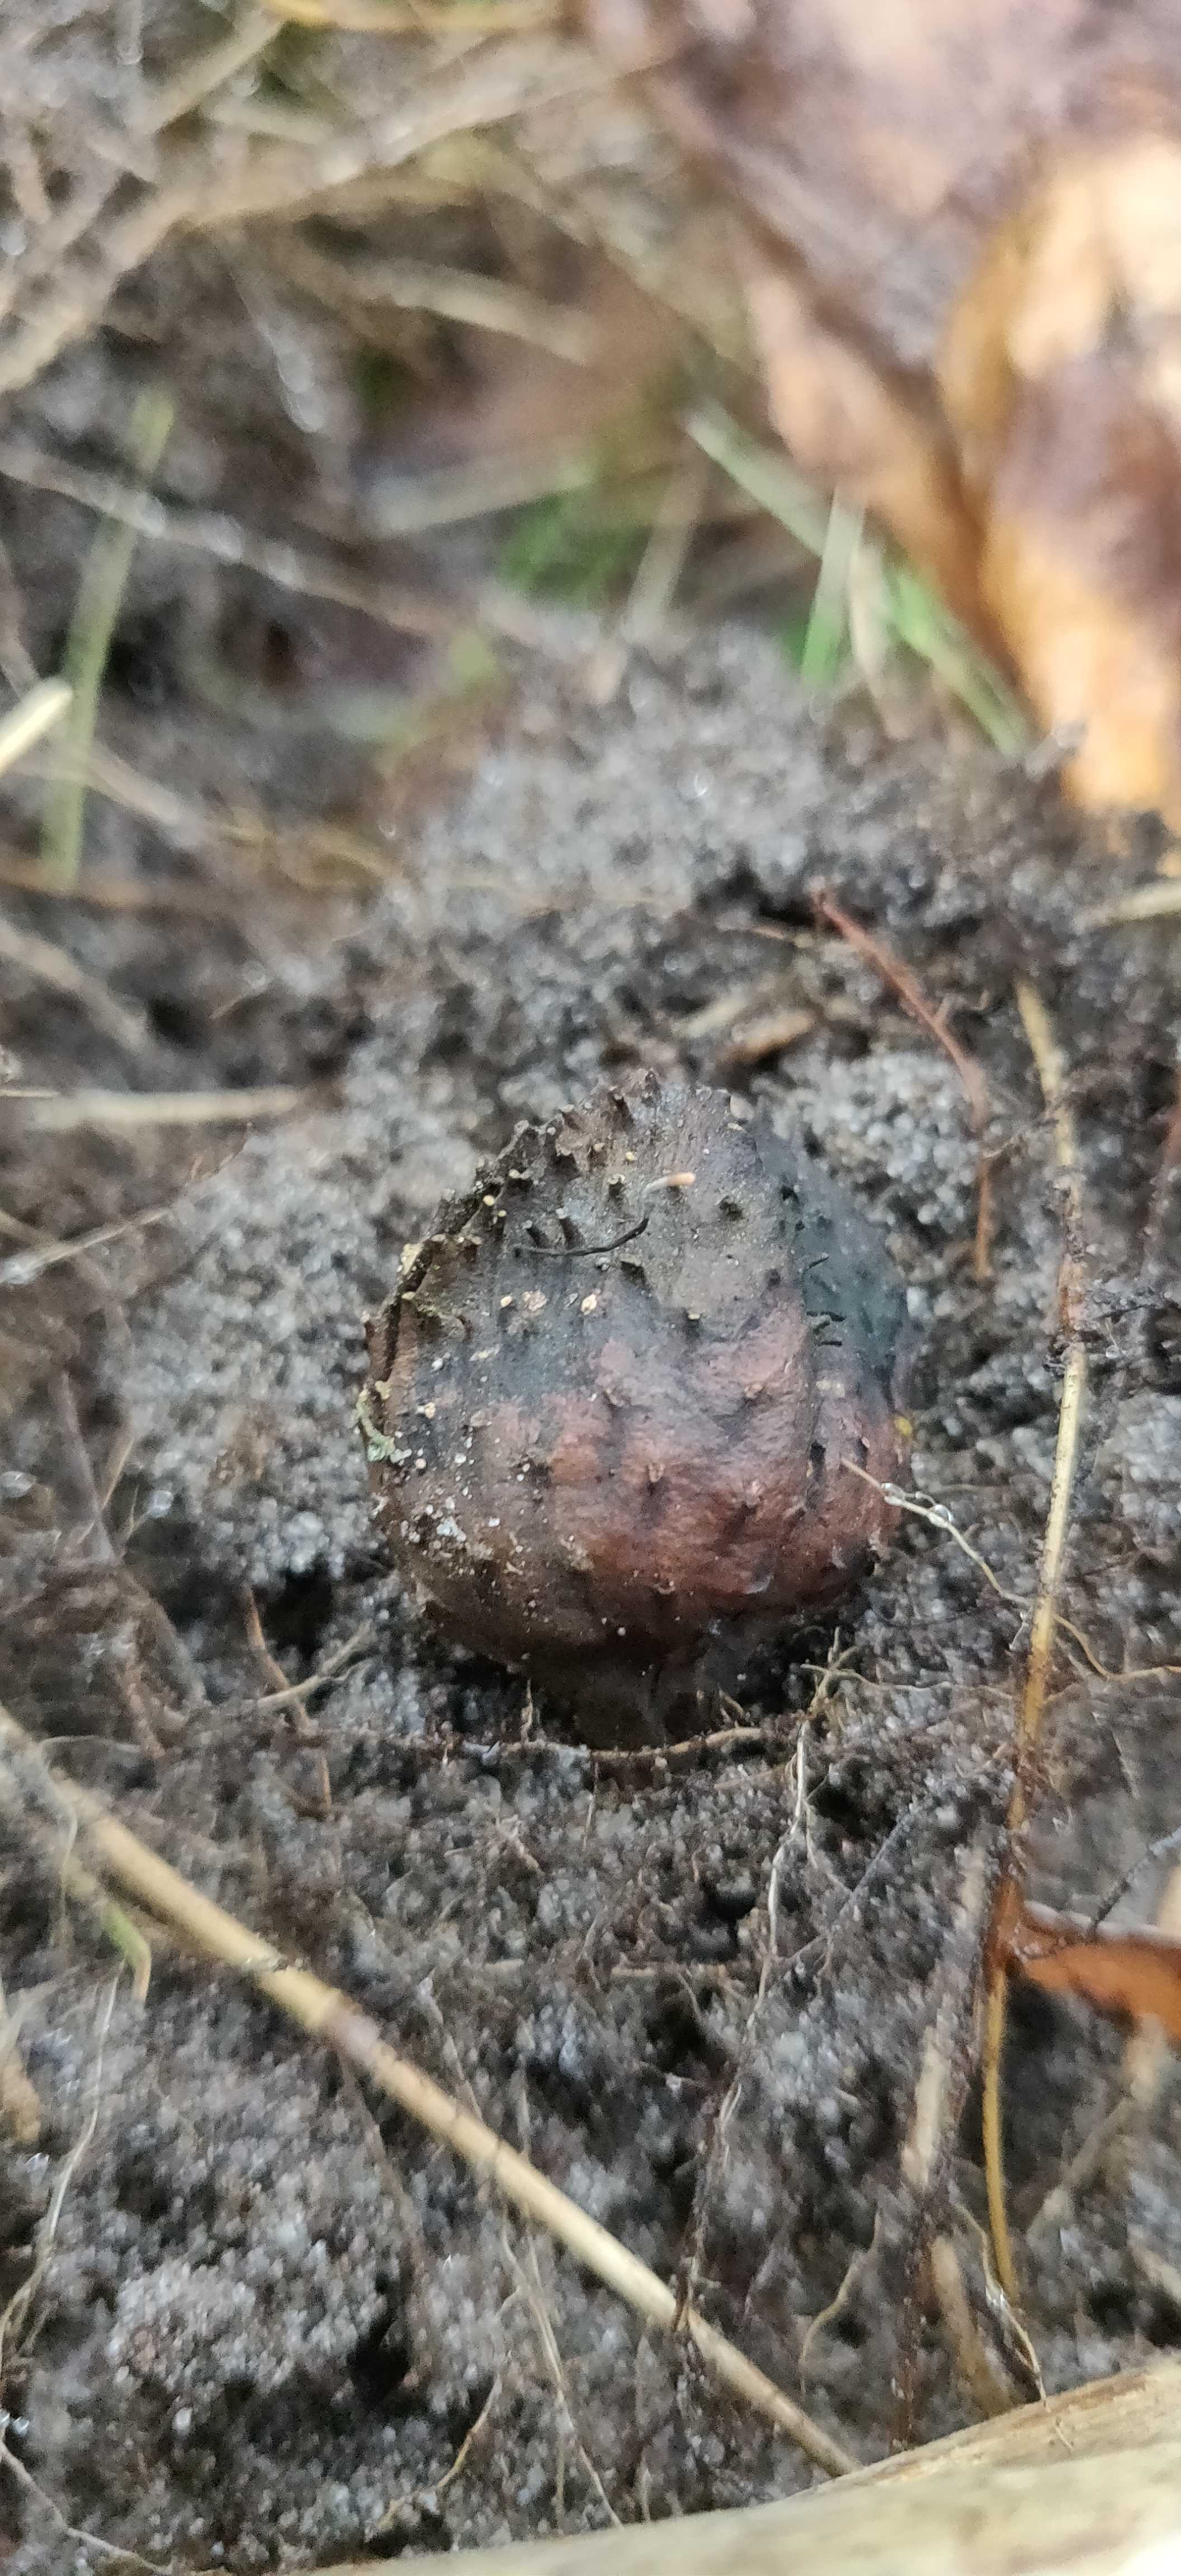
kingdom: Fungi
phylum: Ascomycota
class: Sordariomycetes
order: Xylariales
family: Xylariaceae
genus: Xylaria
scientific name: Xylaria carpophila
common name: bogskål-stødsvamp
